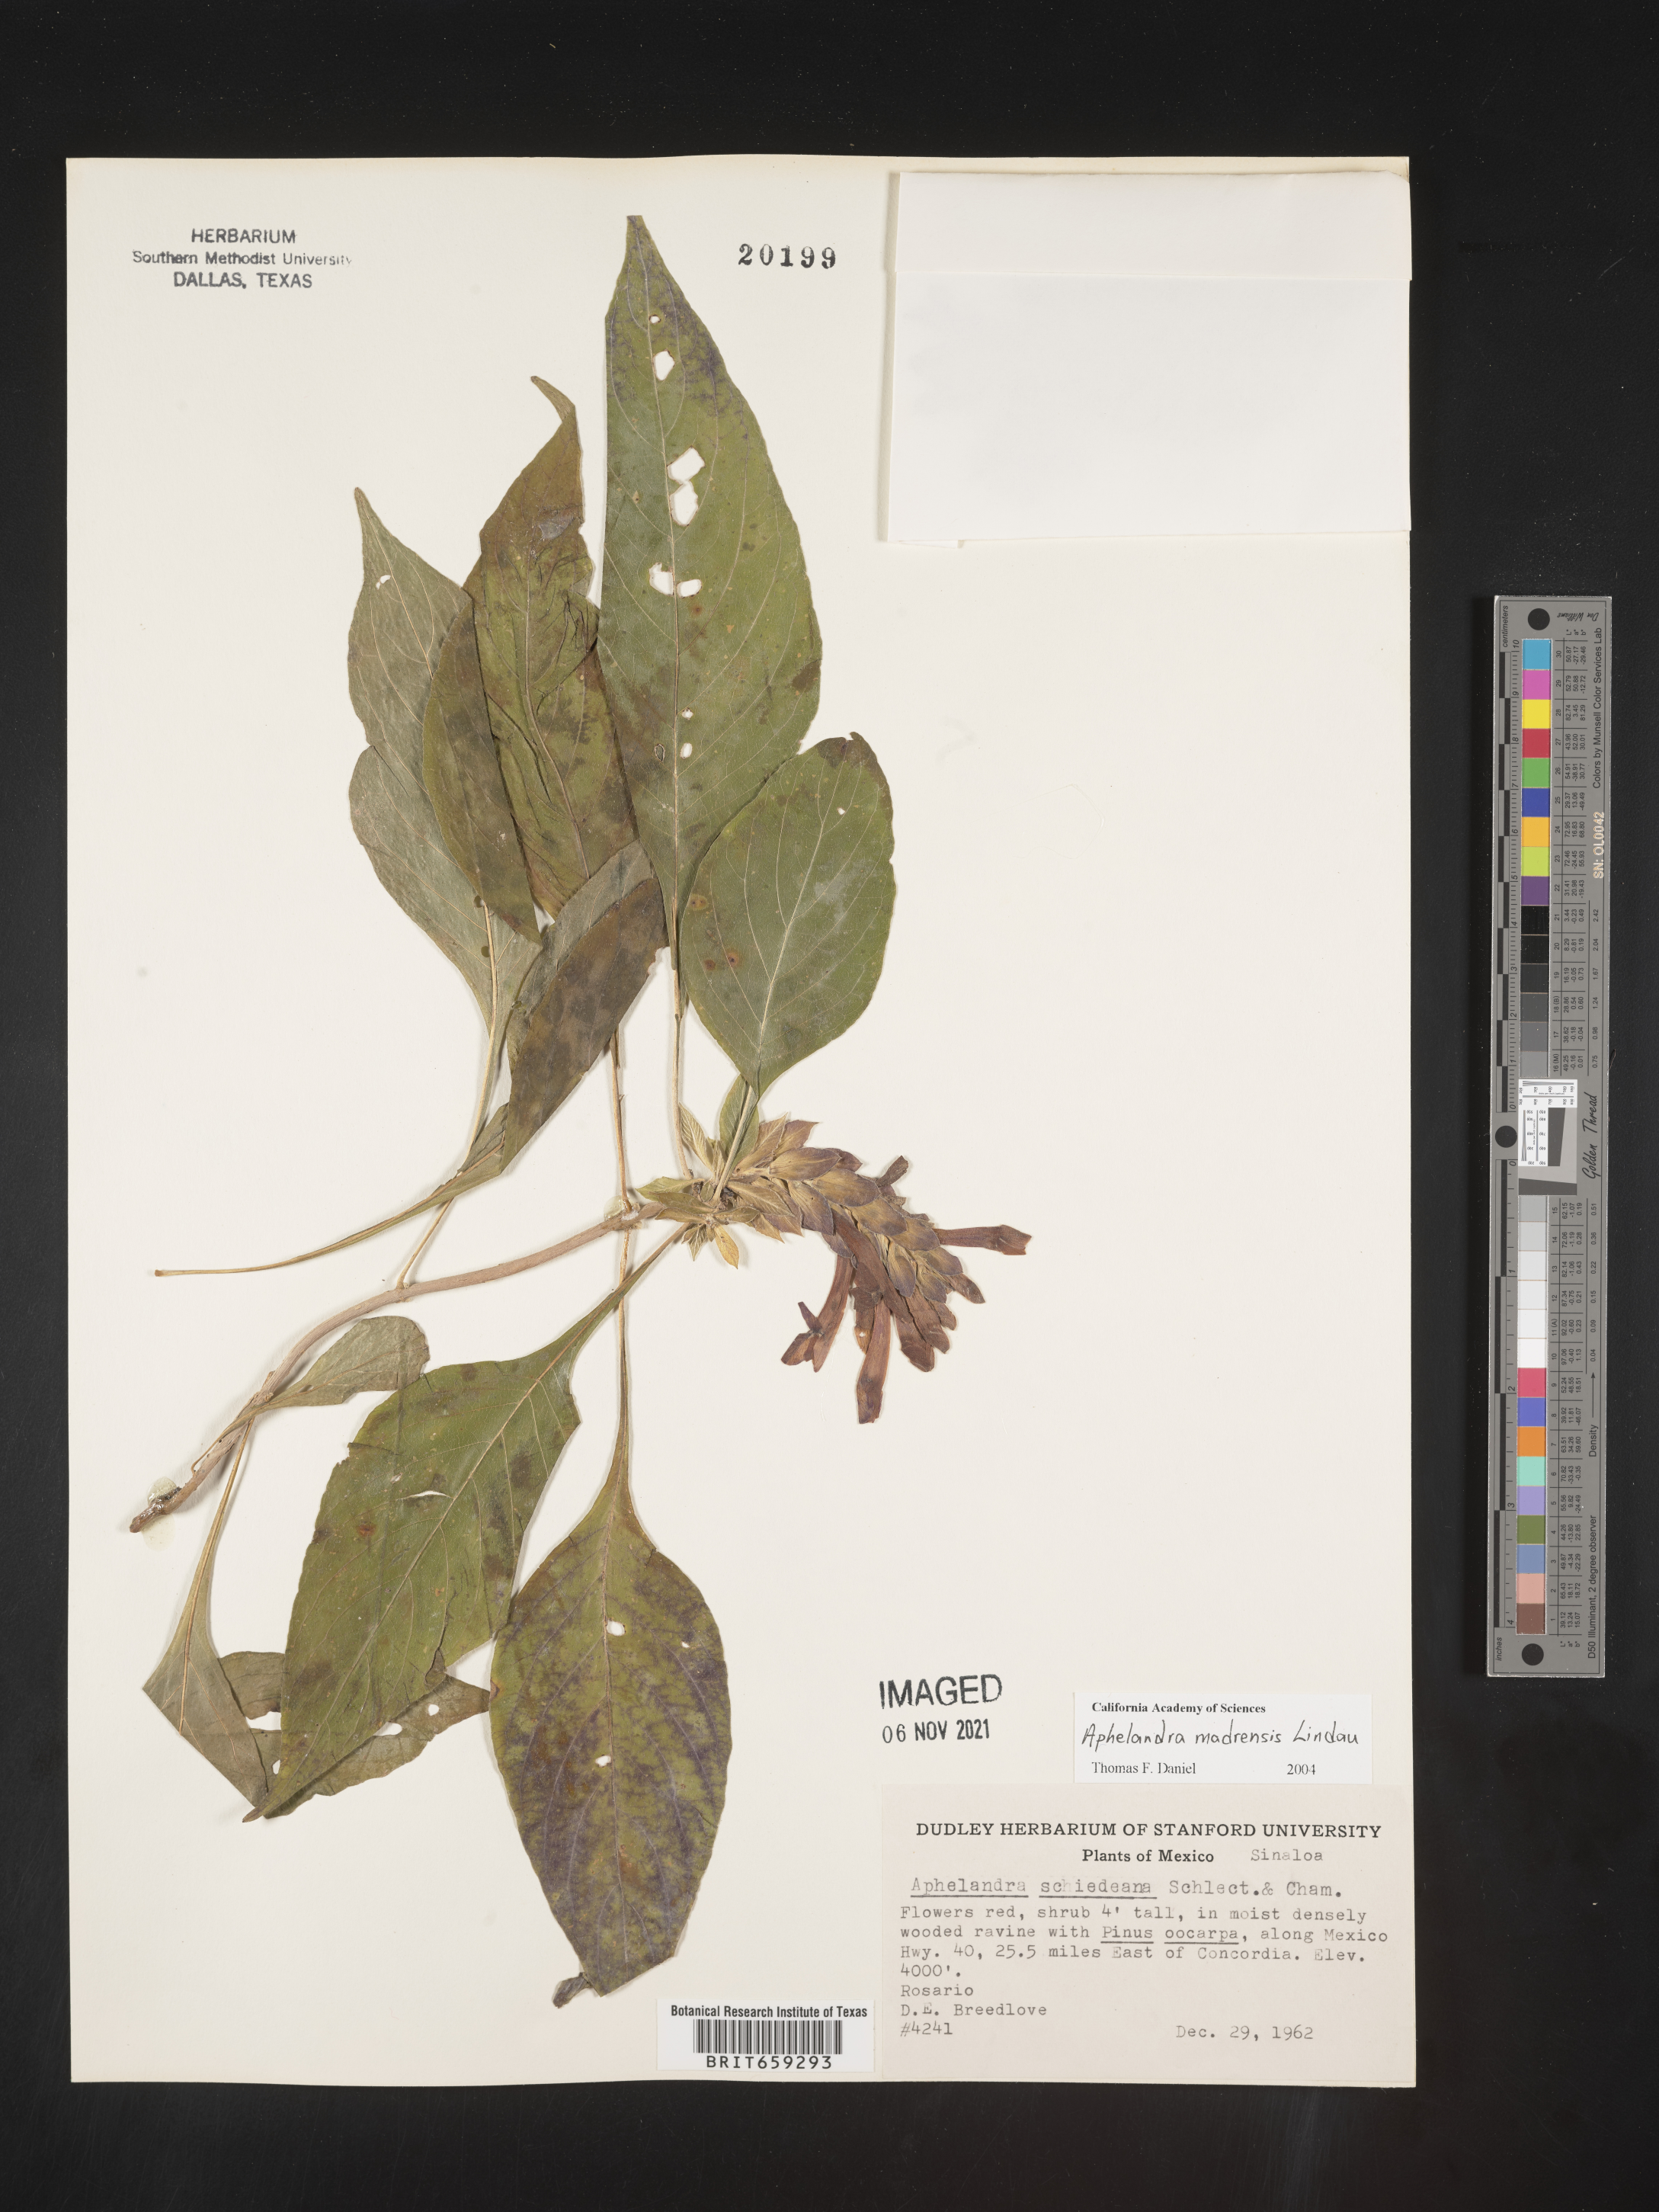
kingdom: Plantae
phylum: Tracheophyta
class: Magnoliopsida
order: Lamiales
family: Acanthaceae
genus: Aphelandra
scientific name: Aphelandra
